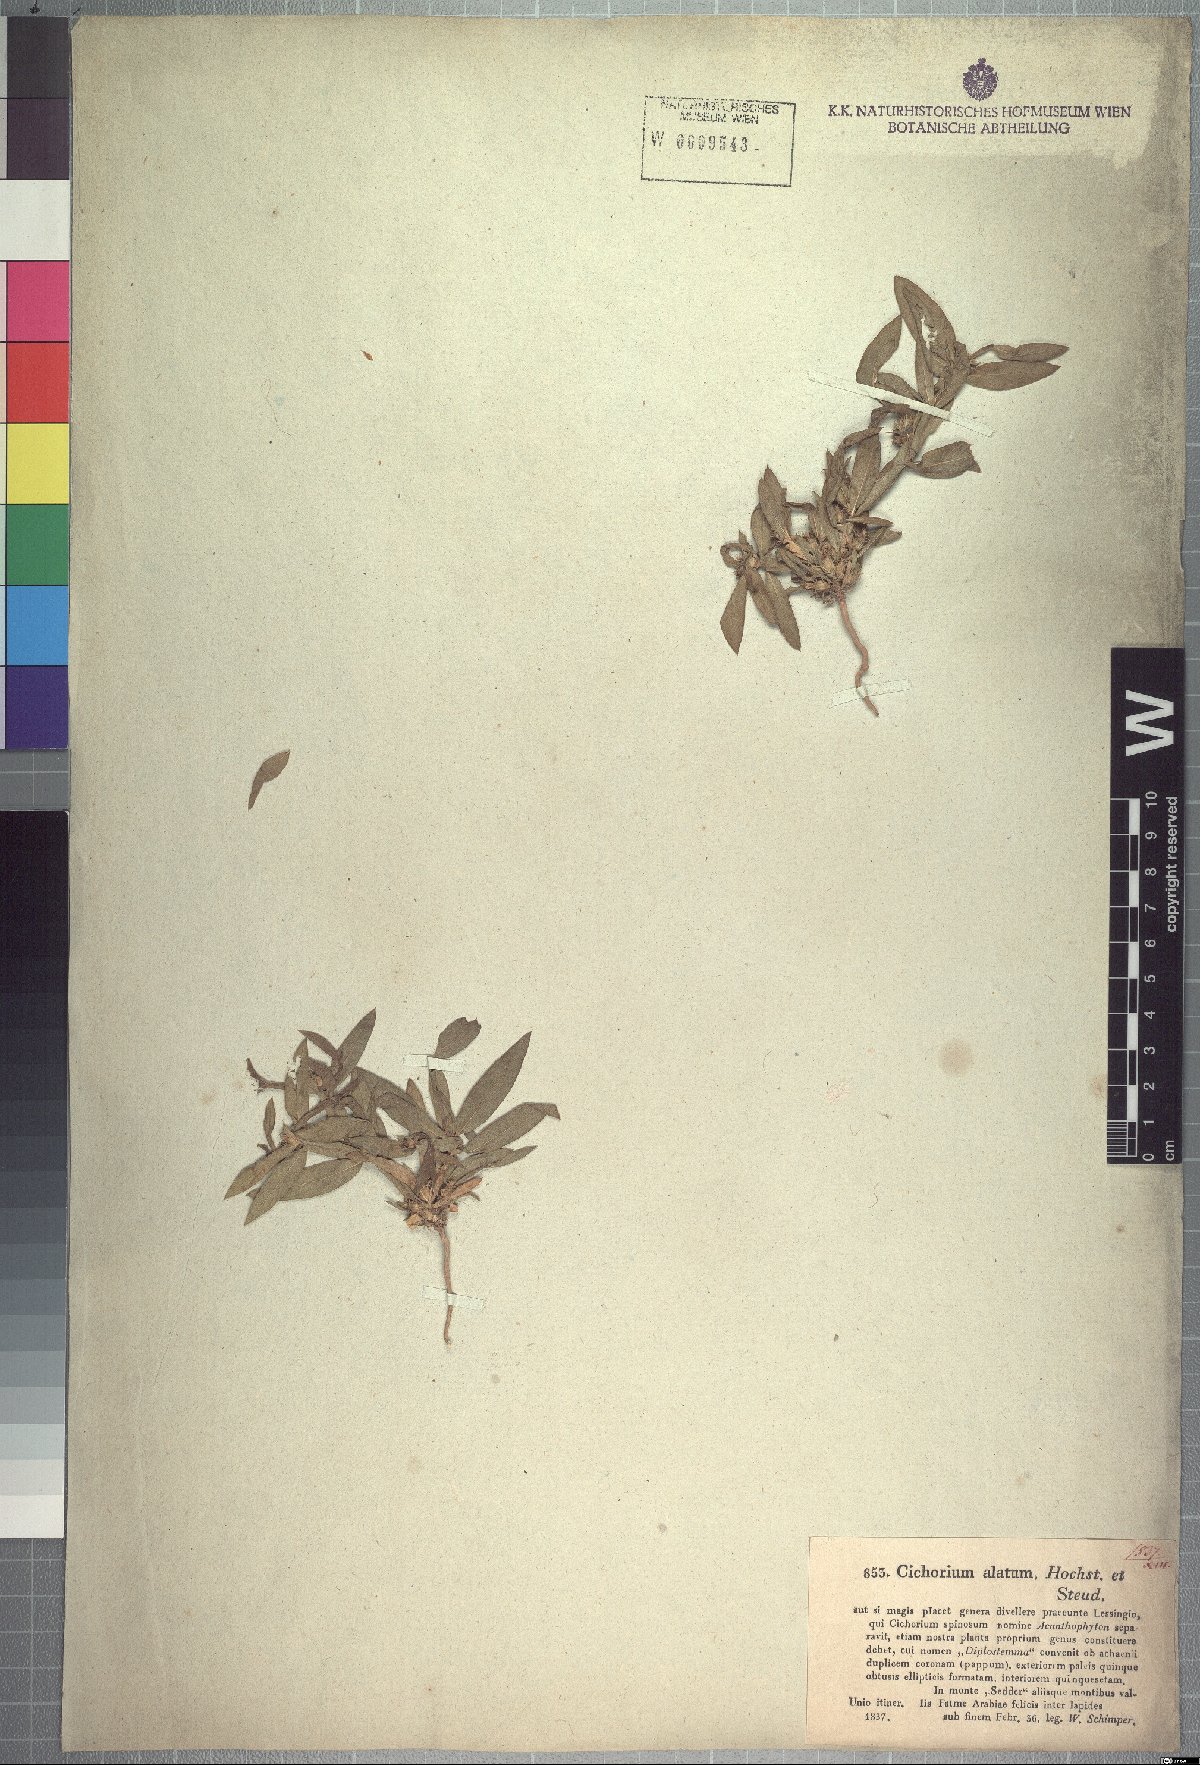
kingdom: Plantae
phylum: Tracheophyta
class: Magnoliopsida
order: Asterales
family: Asteraceae
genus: Geigeria
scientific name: Geigeria alata
